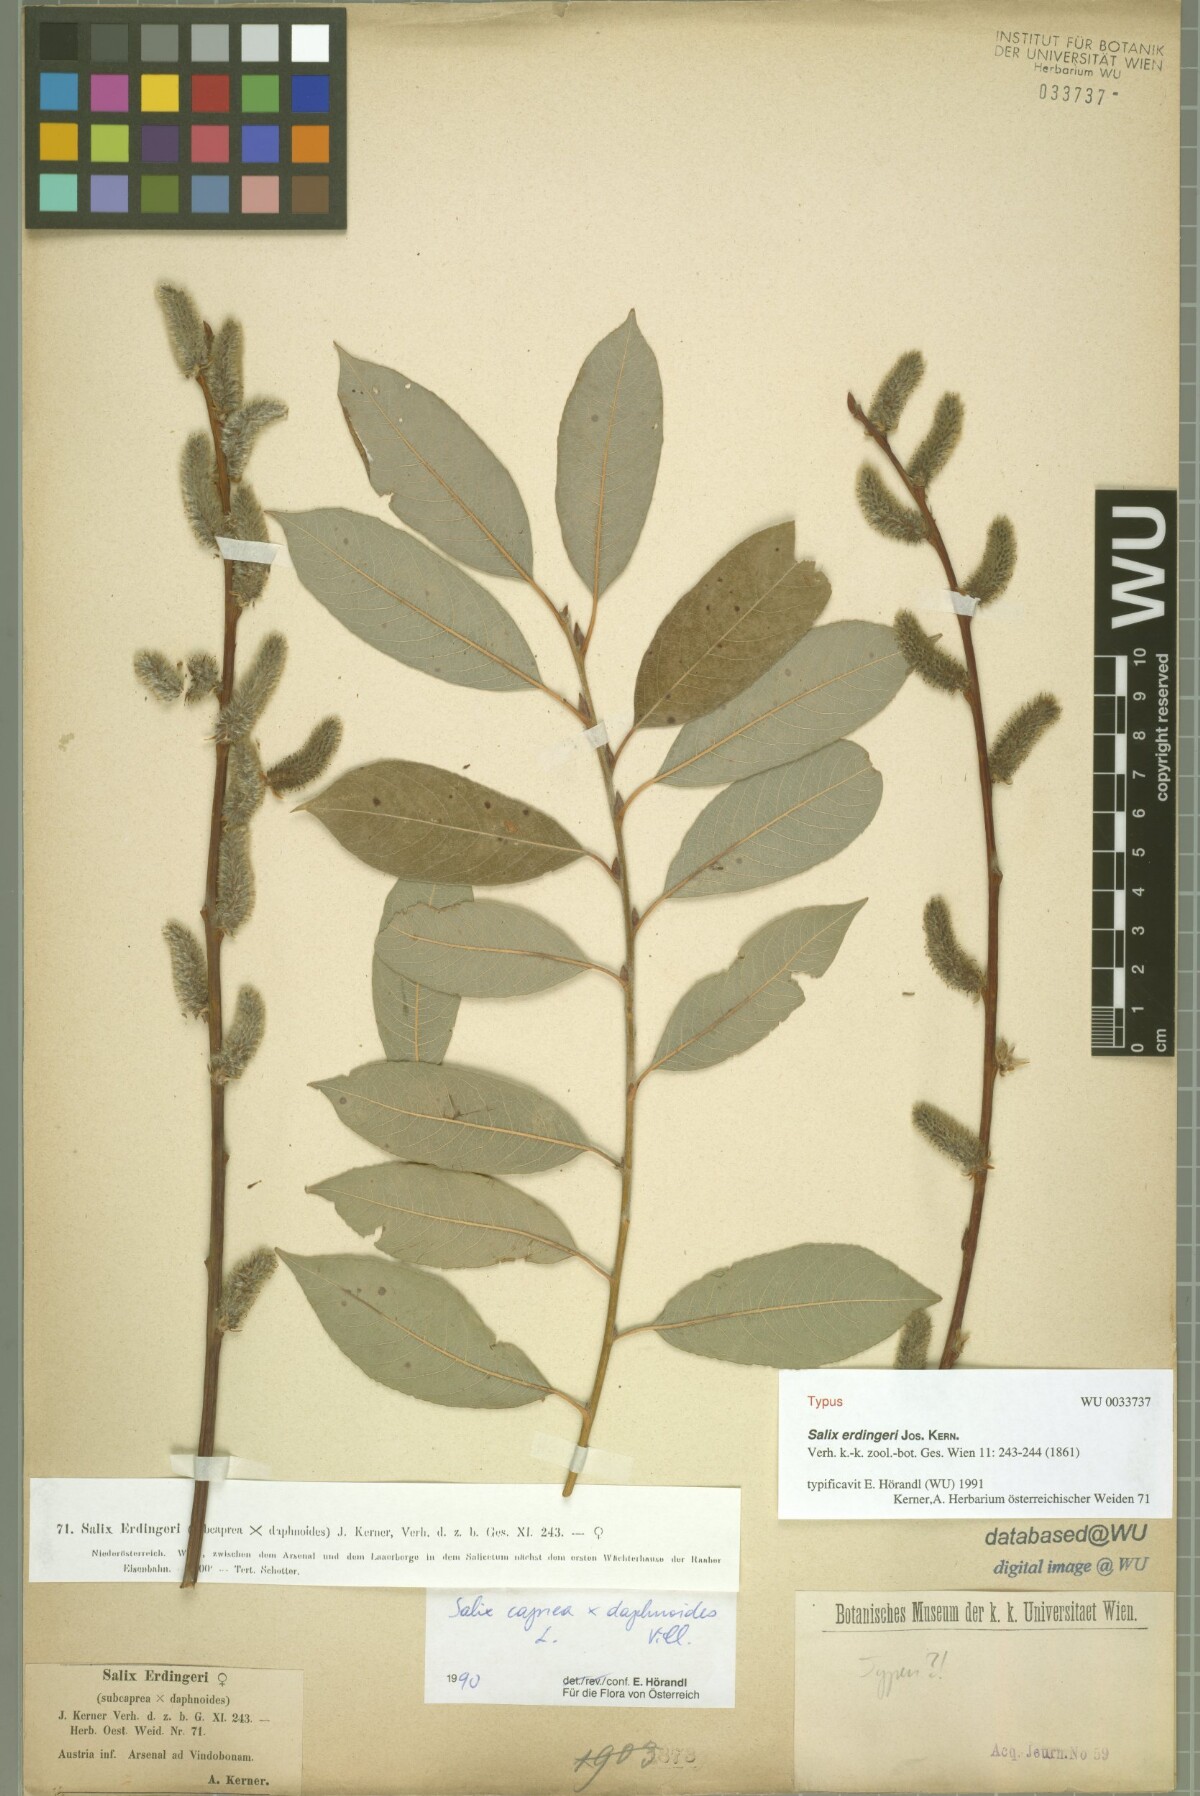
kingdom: Plantae
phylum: Tracheophyta
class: Magnoliopsida
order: Malpighiales
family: Salicaceae
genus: Salix
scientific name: Salix erdingeri
